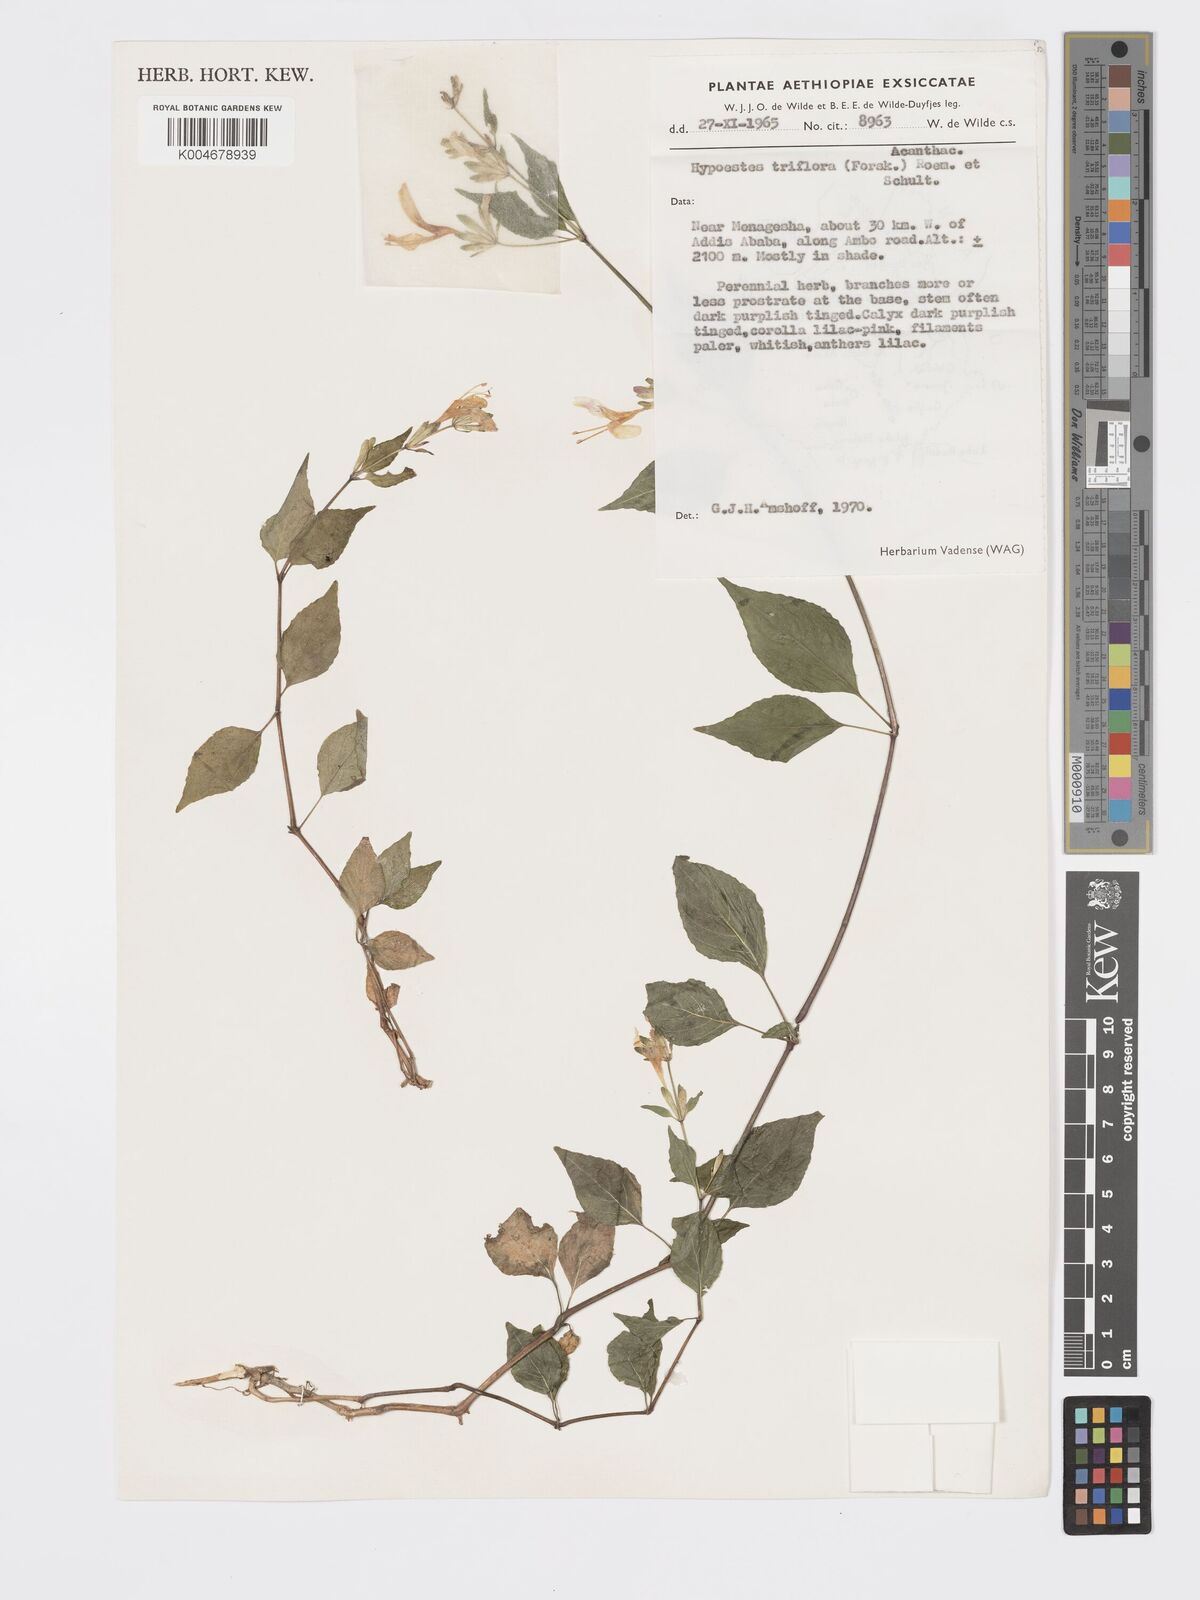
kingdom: Plantae
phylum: Tracheophyta
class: Magnoliopsida
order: Lamiales
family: Acanthaceae
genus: Hypoestes
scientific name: Hypoestes triflora
